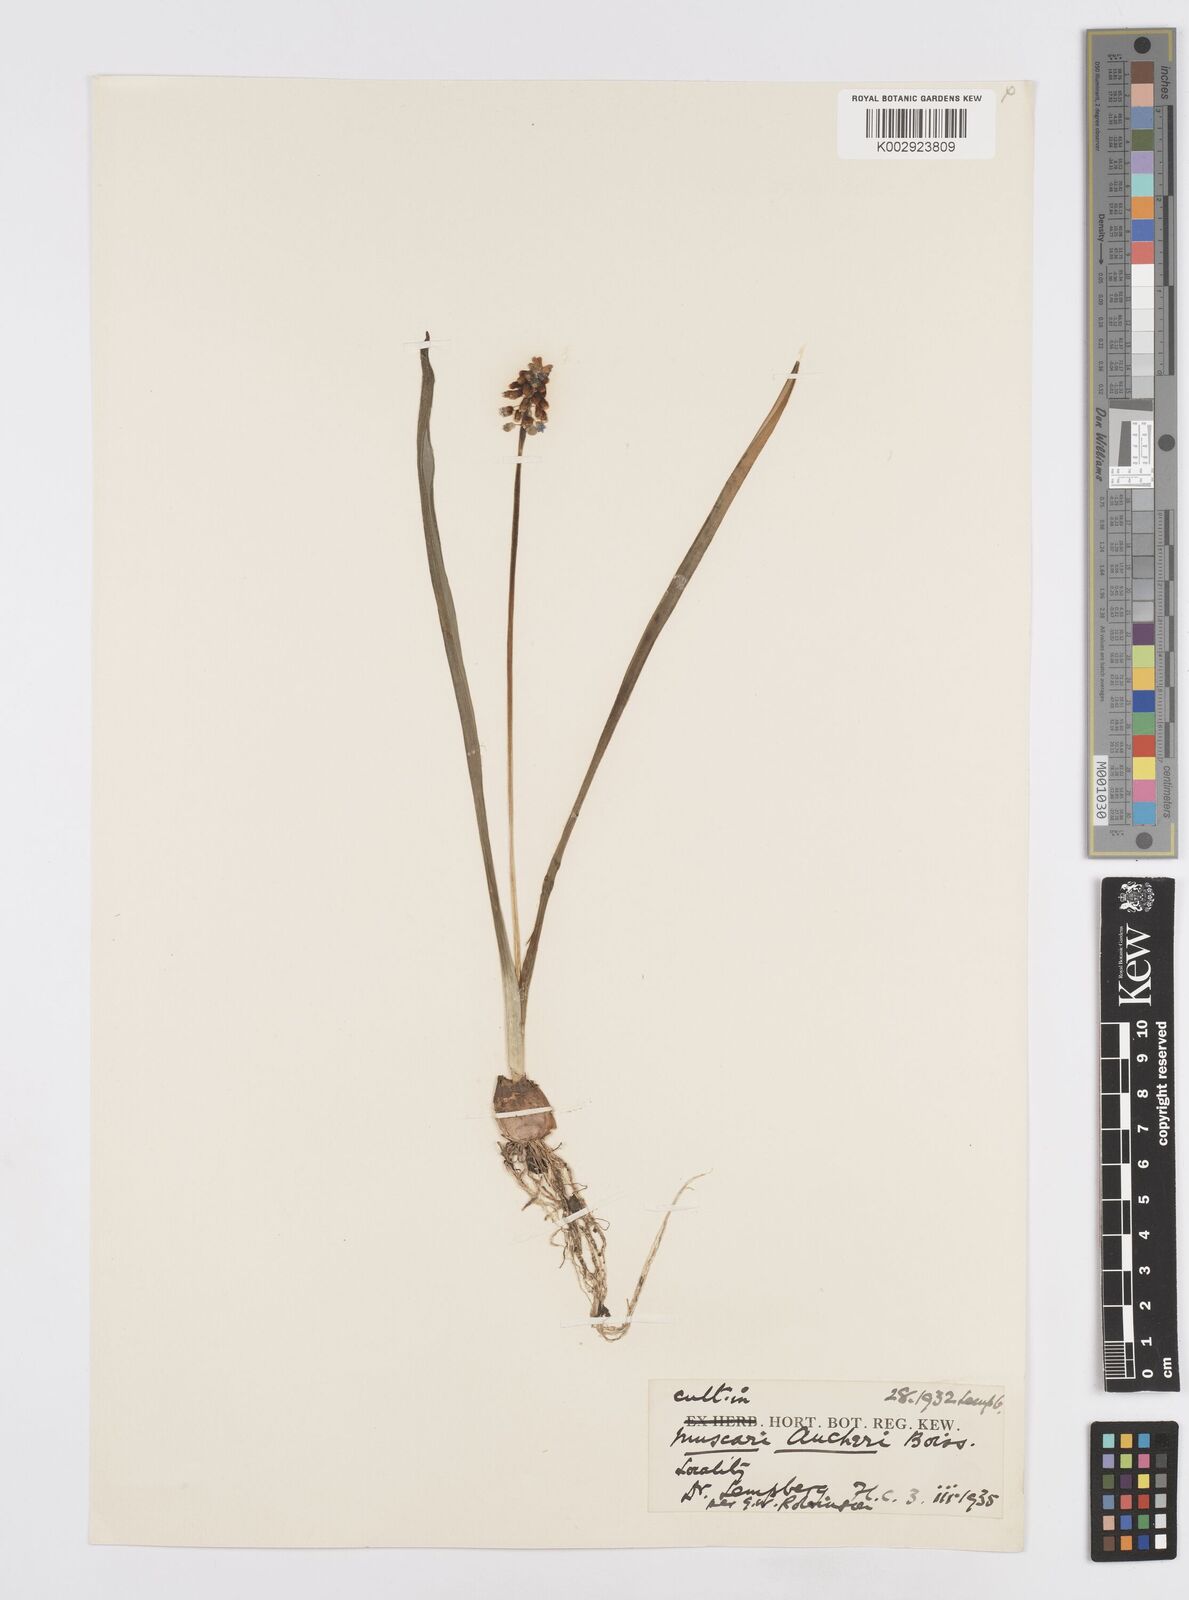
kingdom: Plantae
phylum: Tracheophyta
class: Liliopsida
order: Asparagales
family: Asparagaceae
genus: Muscari
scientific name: Muscari aucheri
